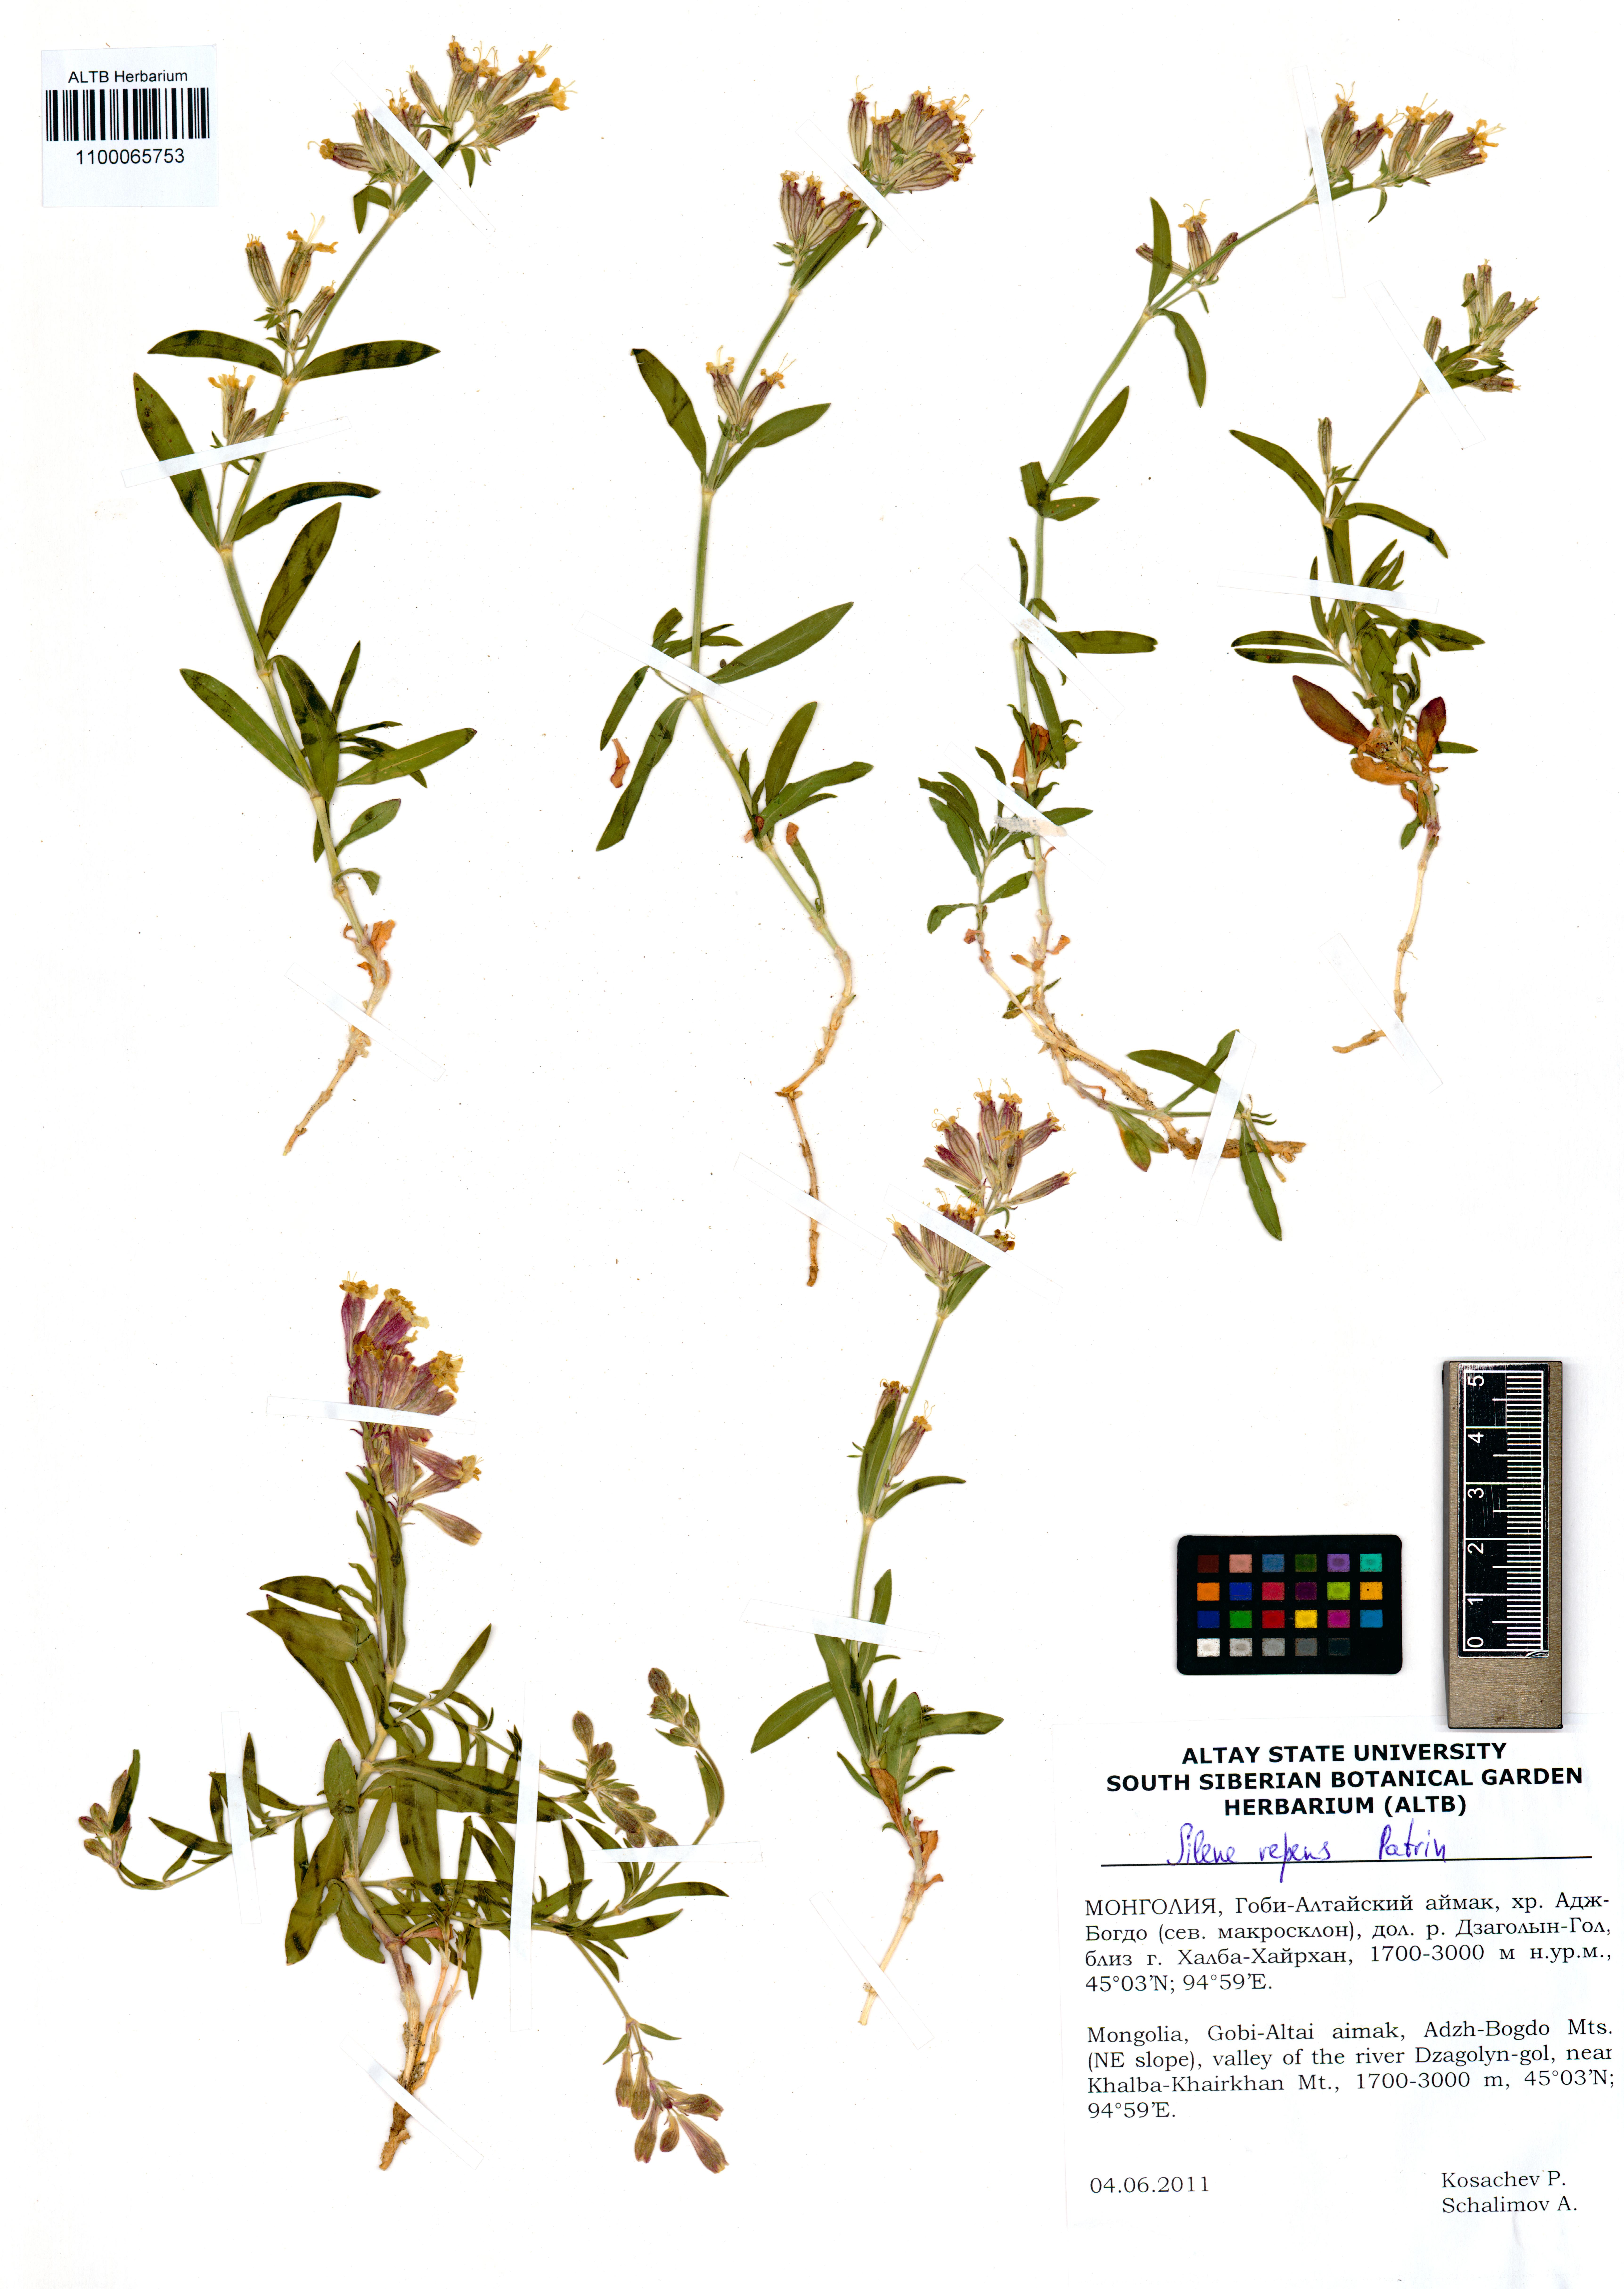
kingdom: Plantae
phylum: Tracheophyta
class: Magnoliopsida
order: Caryophyllales
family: Caryophyllaceae
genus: Silene
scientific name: Silene repens
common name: Pink campion
